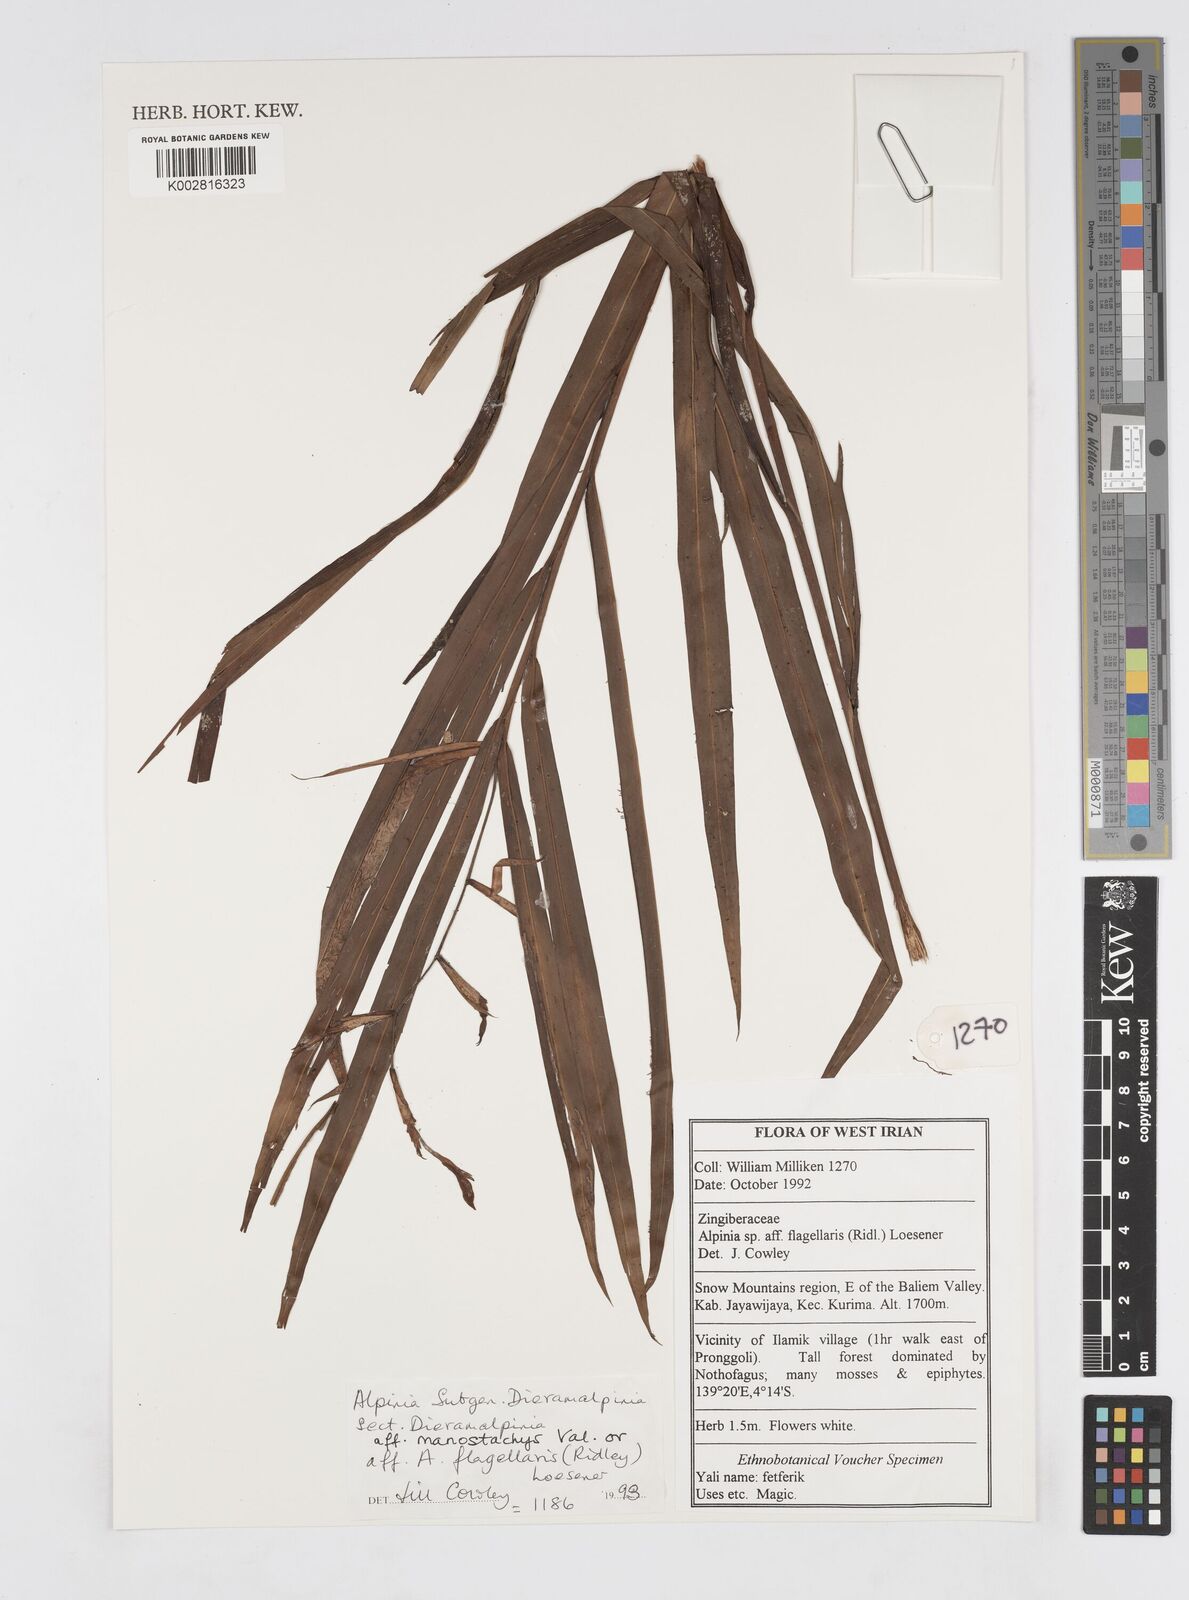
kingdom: Plantae
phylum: Tracheophyta
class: Liliopsida
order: Zingiberales
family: Zingiberaceae
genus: Alpinia
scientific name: Alpinia manostachys
